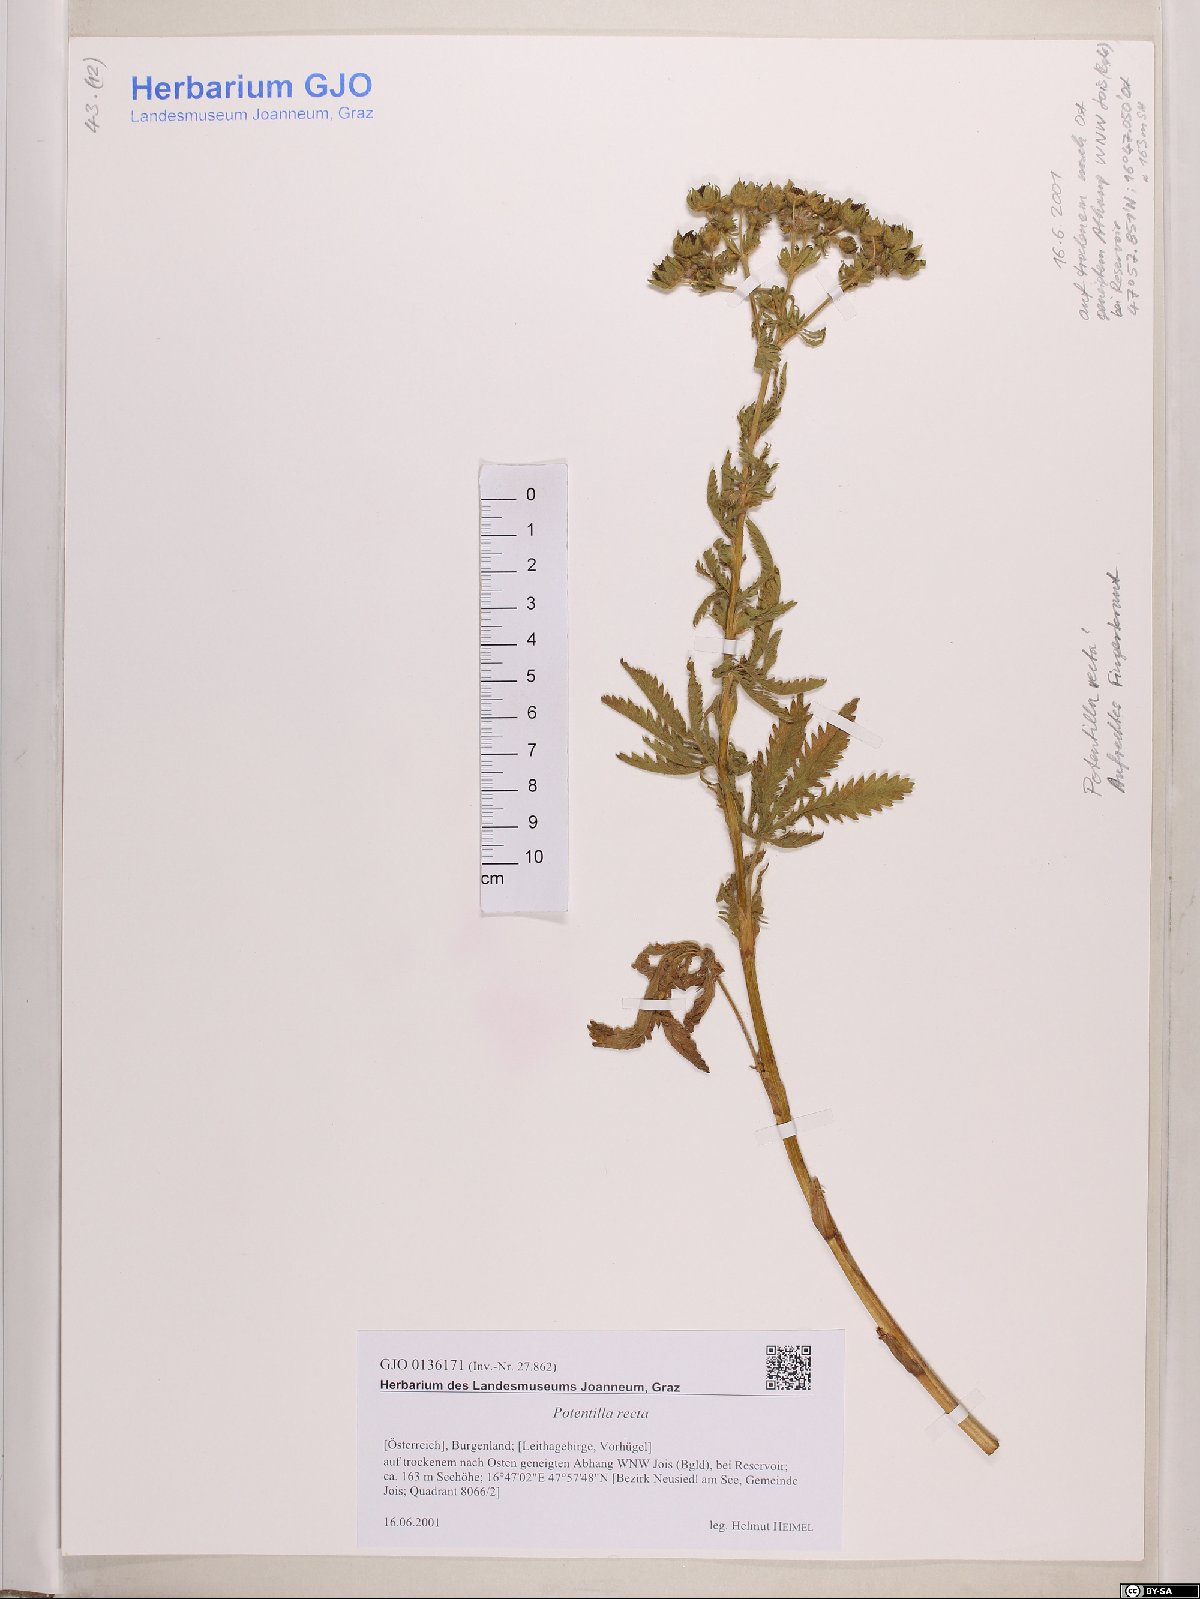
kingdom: Plantae
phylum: Tracheophyta
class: Magnoliopsida
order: Rosales
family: Rosaceae
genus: Potentilla
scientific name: Potentilla recta
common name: Sulphur cinquefoil
